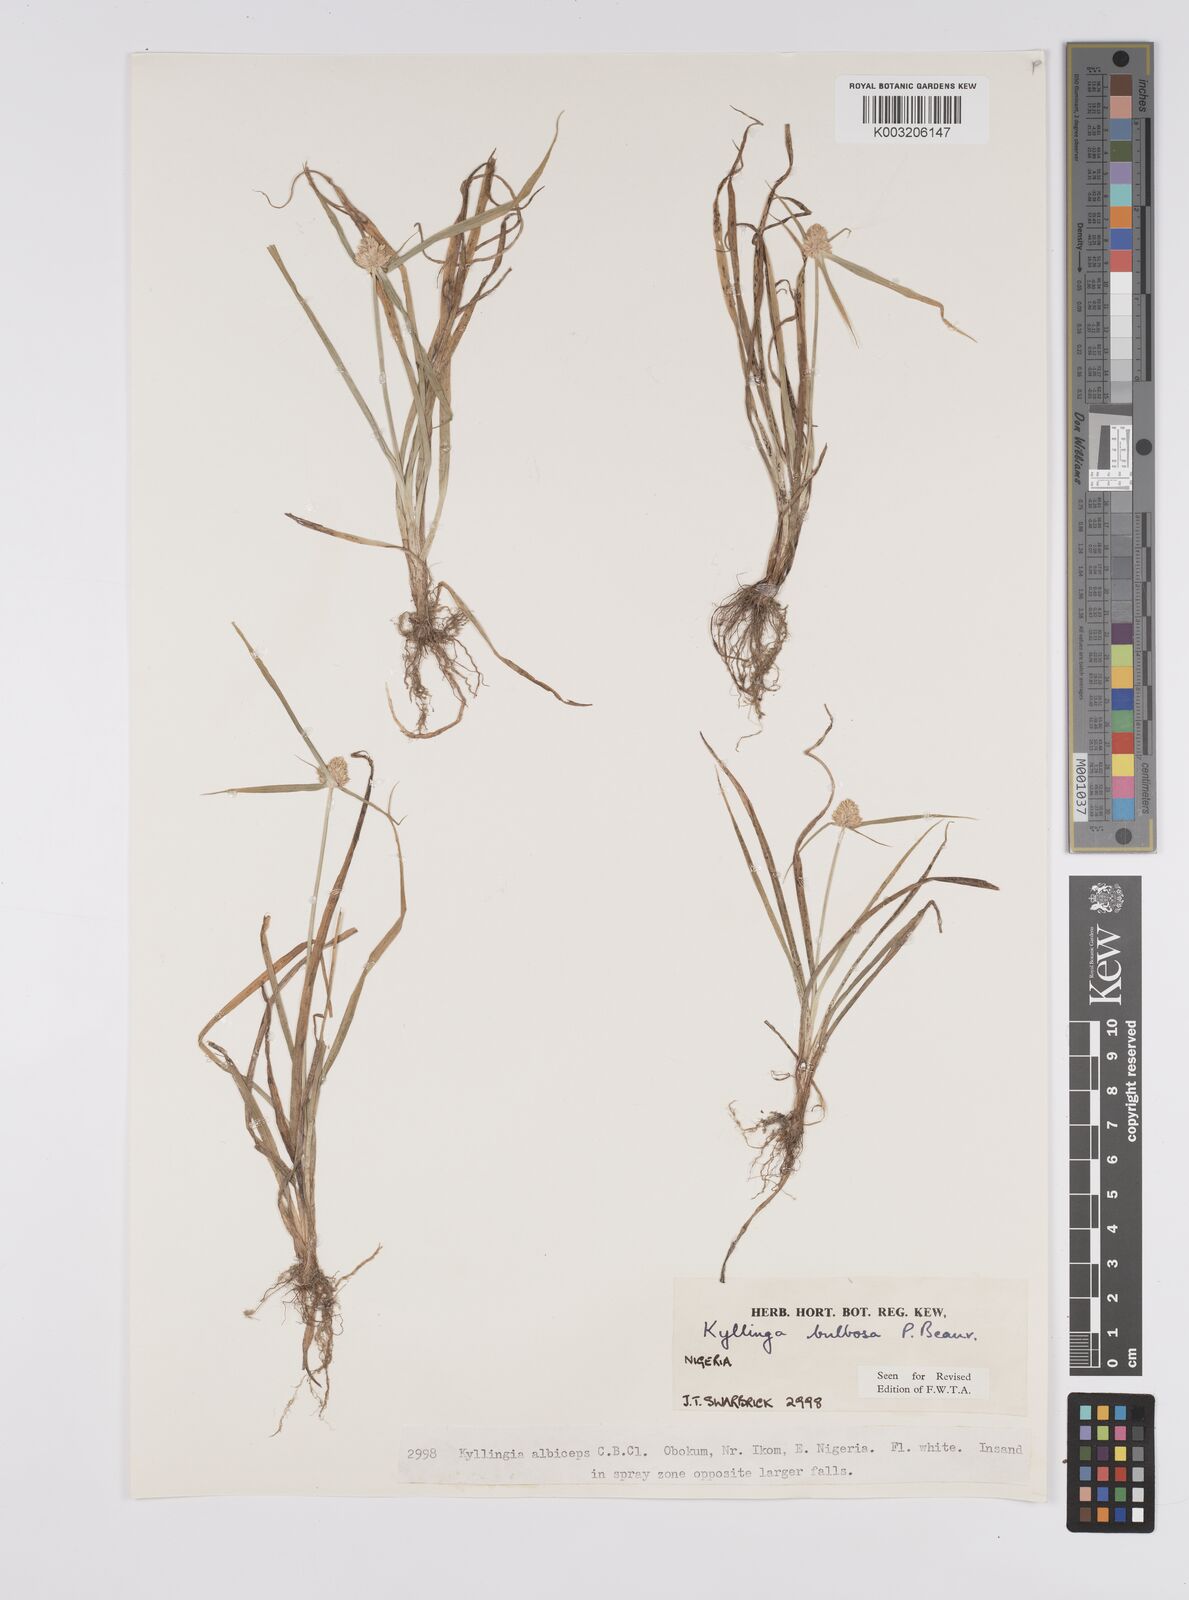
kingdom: Plantae
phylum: Tracheophyta
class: Liliopsida
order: Poales
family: Cyperaceae
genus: Cyperus
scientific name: Cyperus
